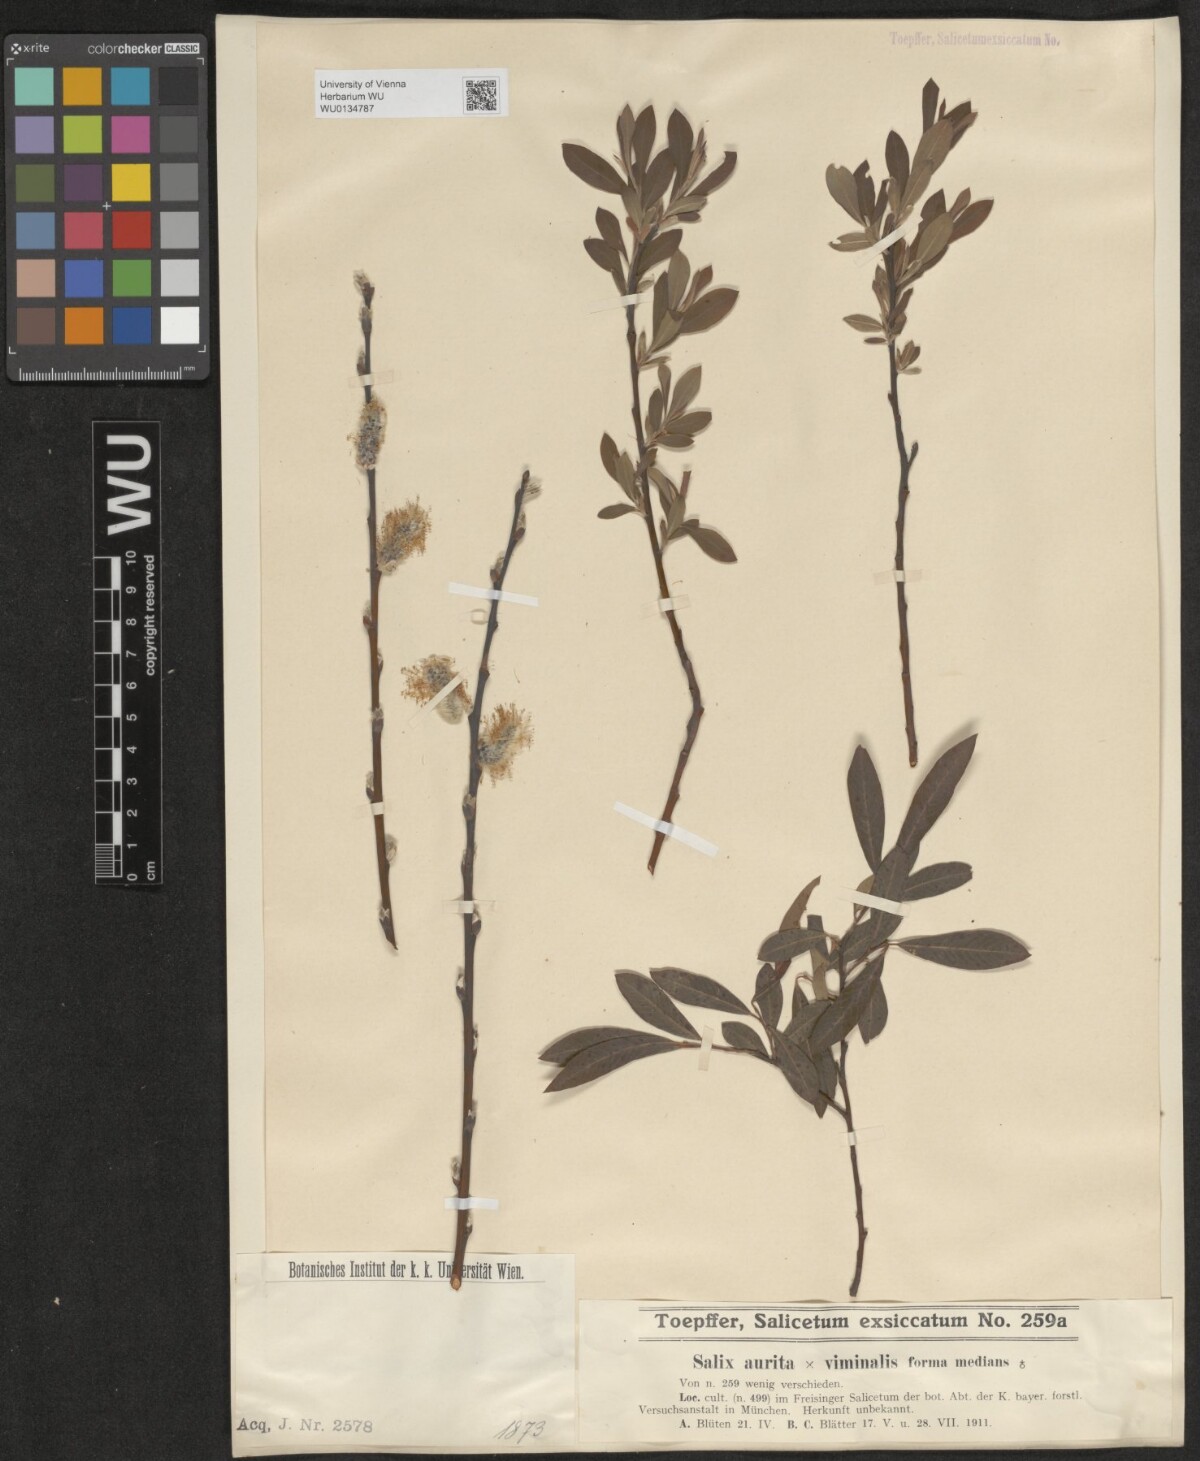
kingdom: Plantae
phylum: Tracheophyta
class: Magnoliopsida
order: Malpighiales
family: Salicaceae
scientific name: Salicaceae
